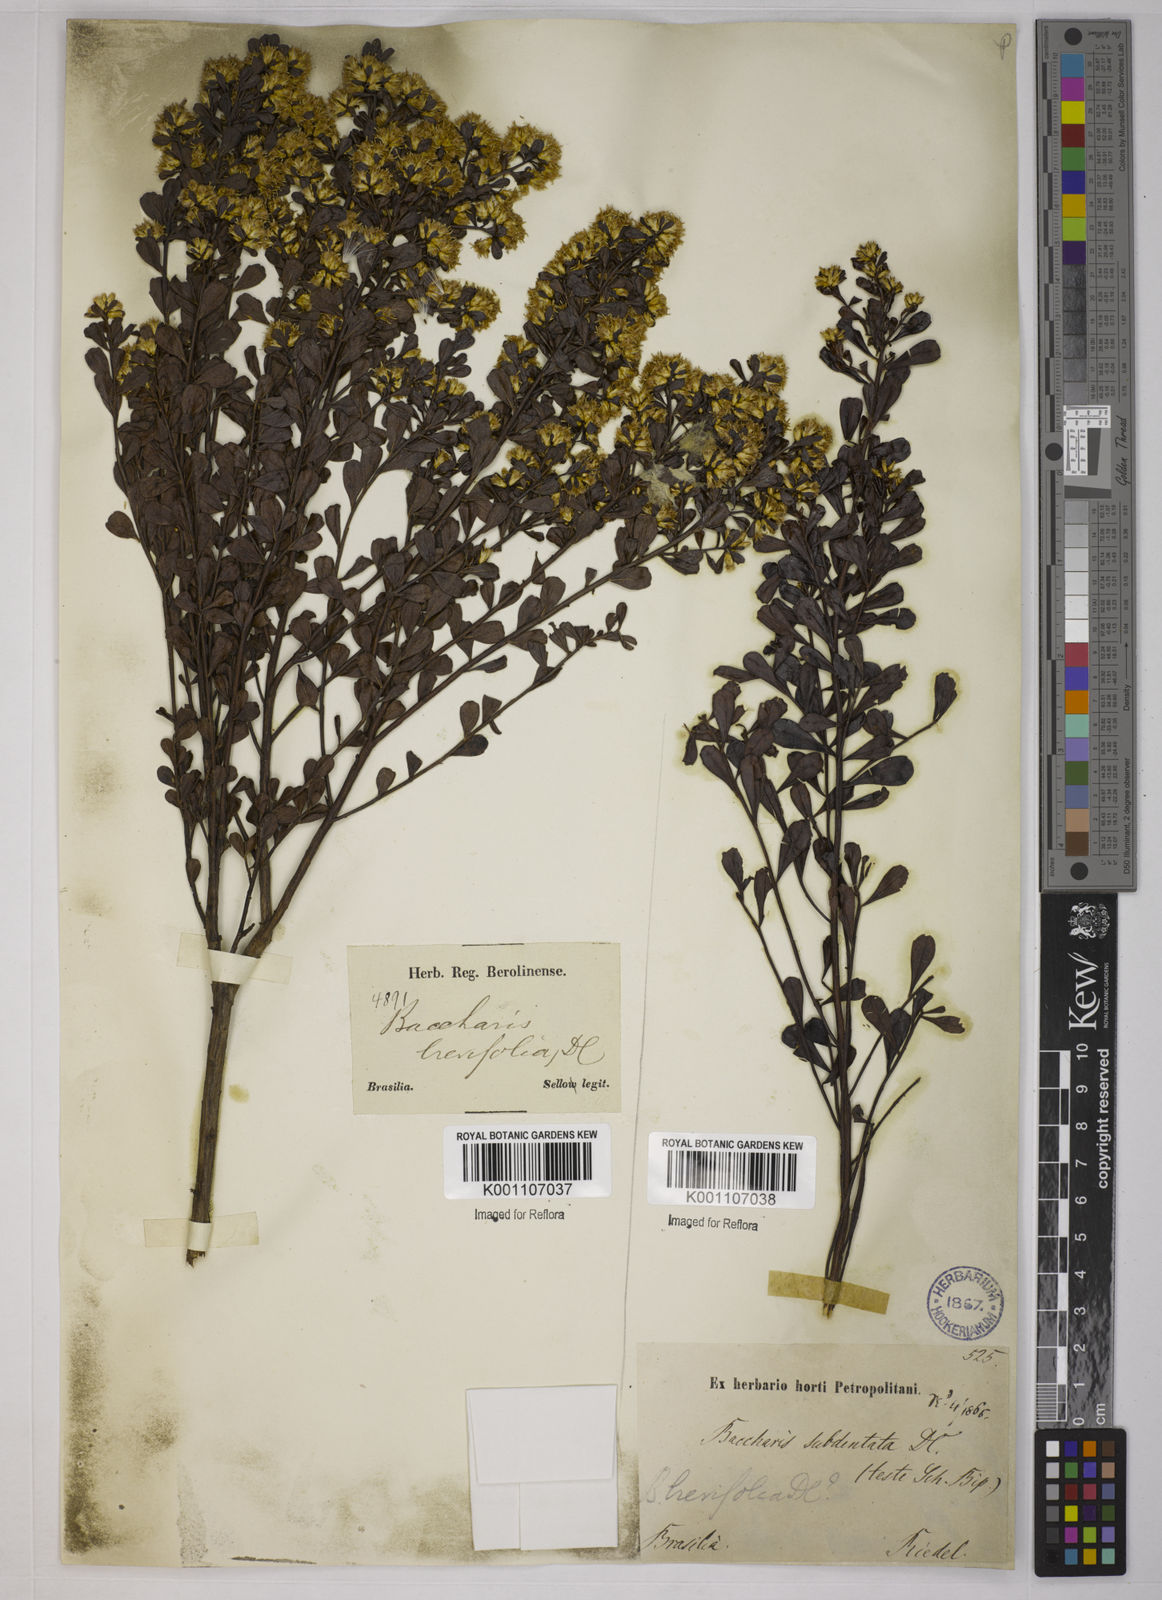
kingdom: Plantae
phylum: Tracheophyta
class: Magnoliopsida
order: Asterales
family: Asteraceae
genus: Baccharis
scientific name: Baccharis brevifolia
